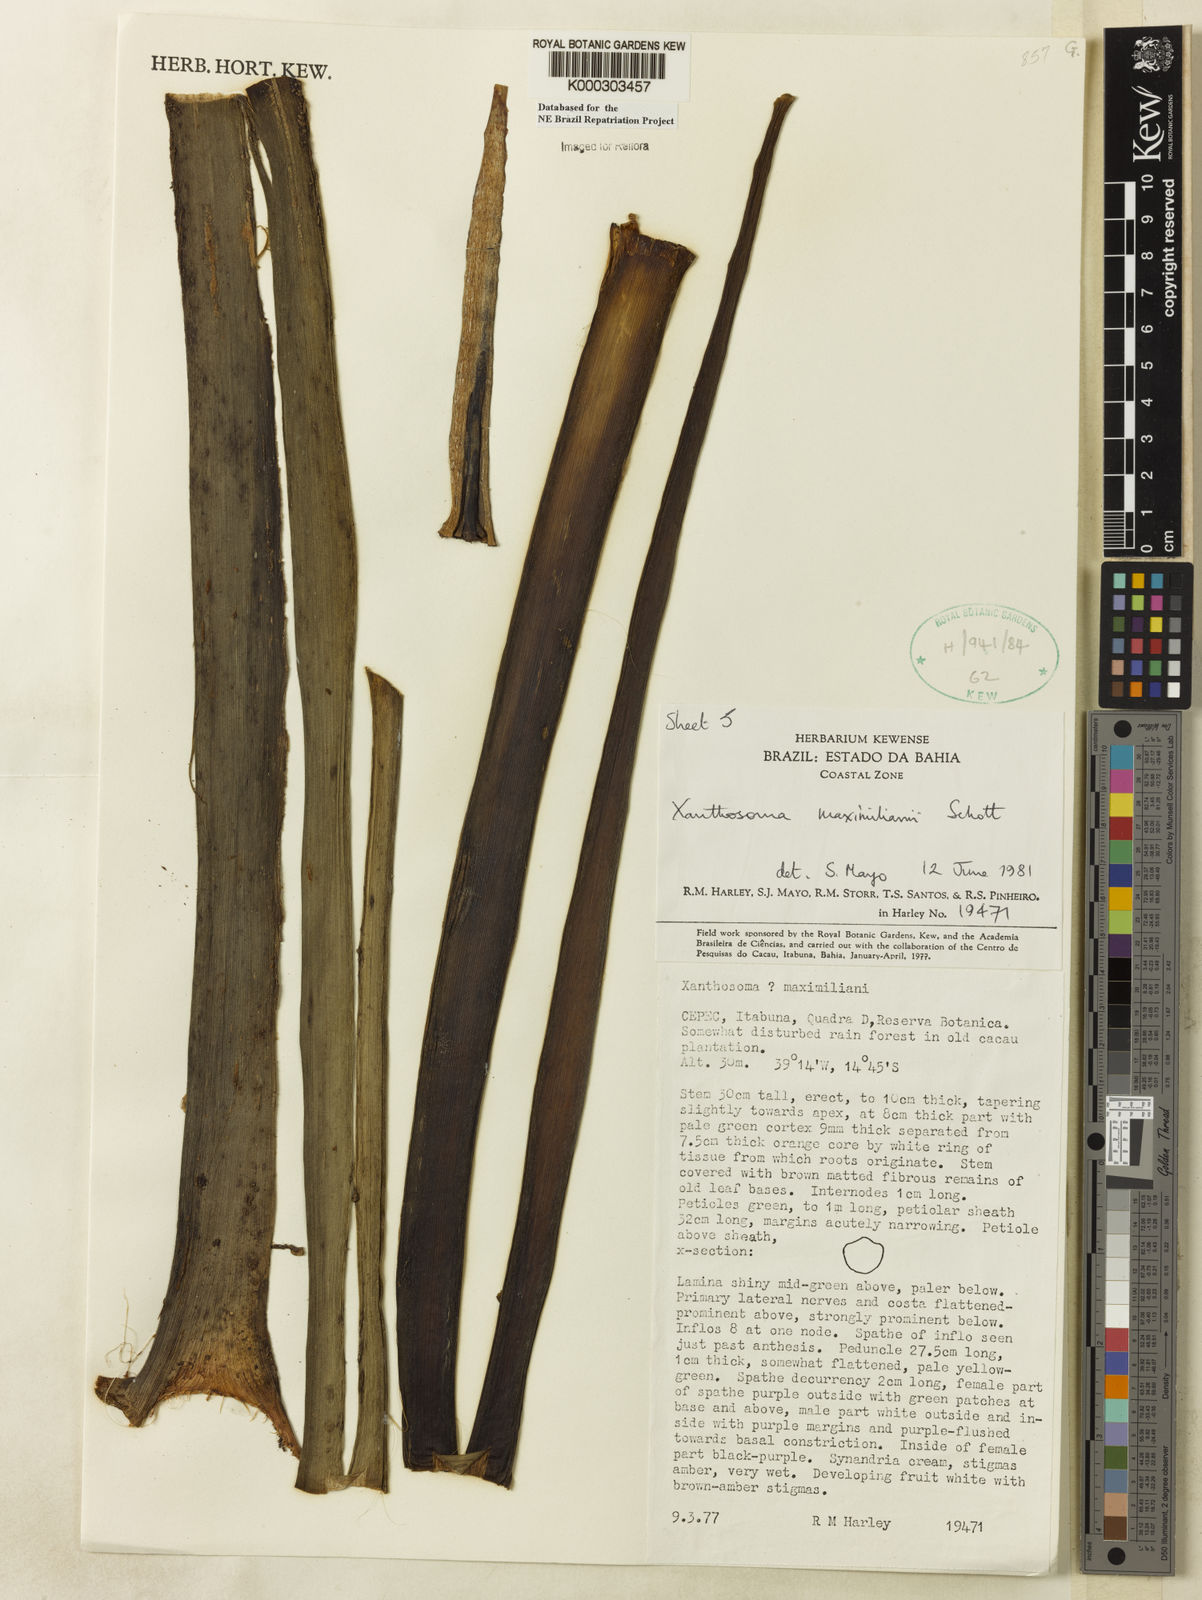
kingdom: Plantae
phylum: Tracheophyta
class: Liliopsida
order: Alismatales
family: Araceae
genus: Xanthosoma
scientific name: Xanthosoma maximiliani
